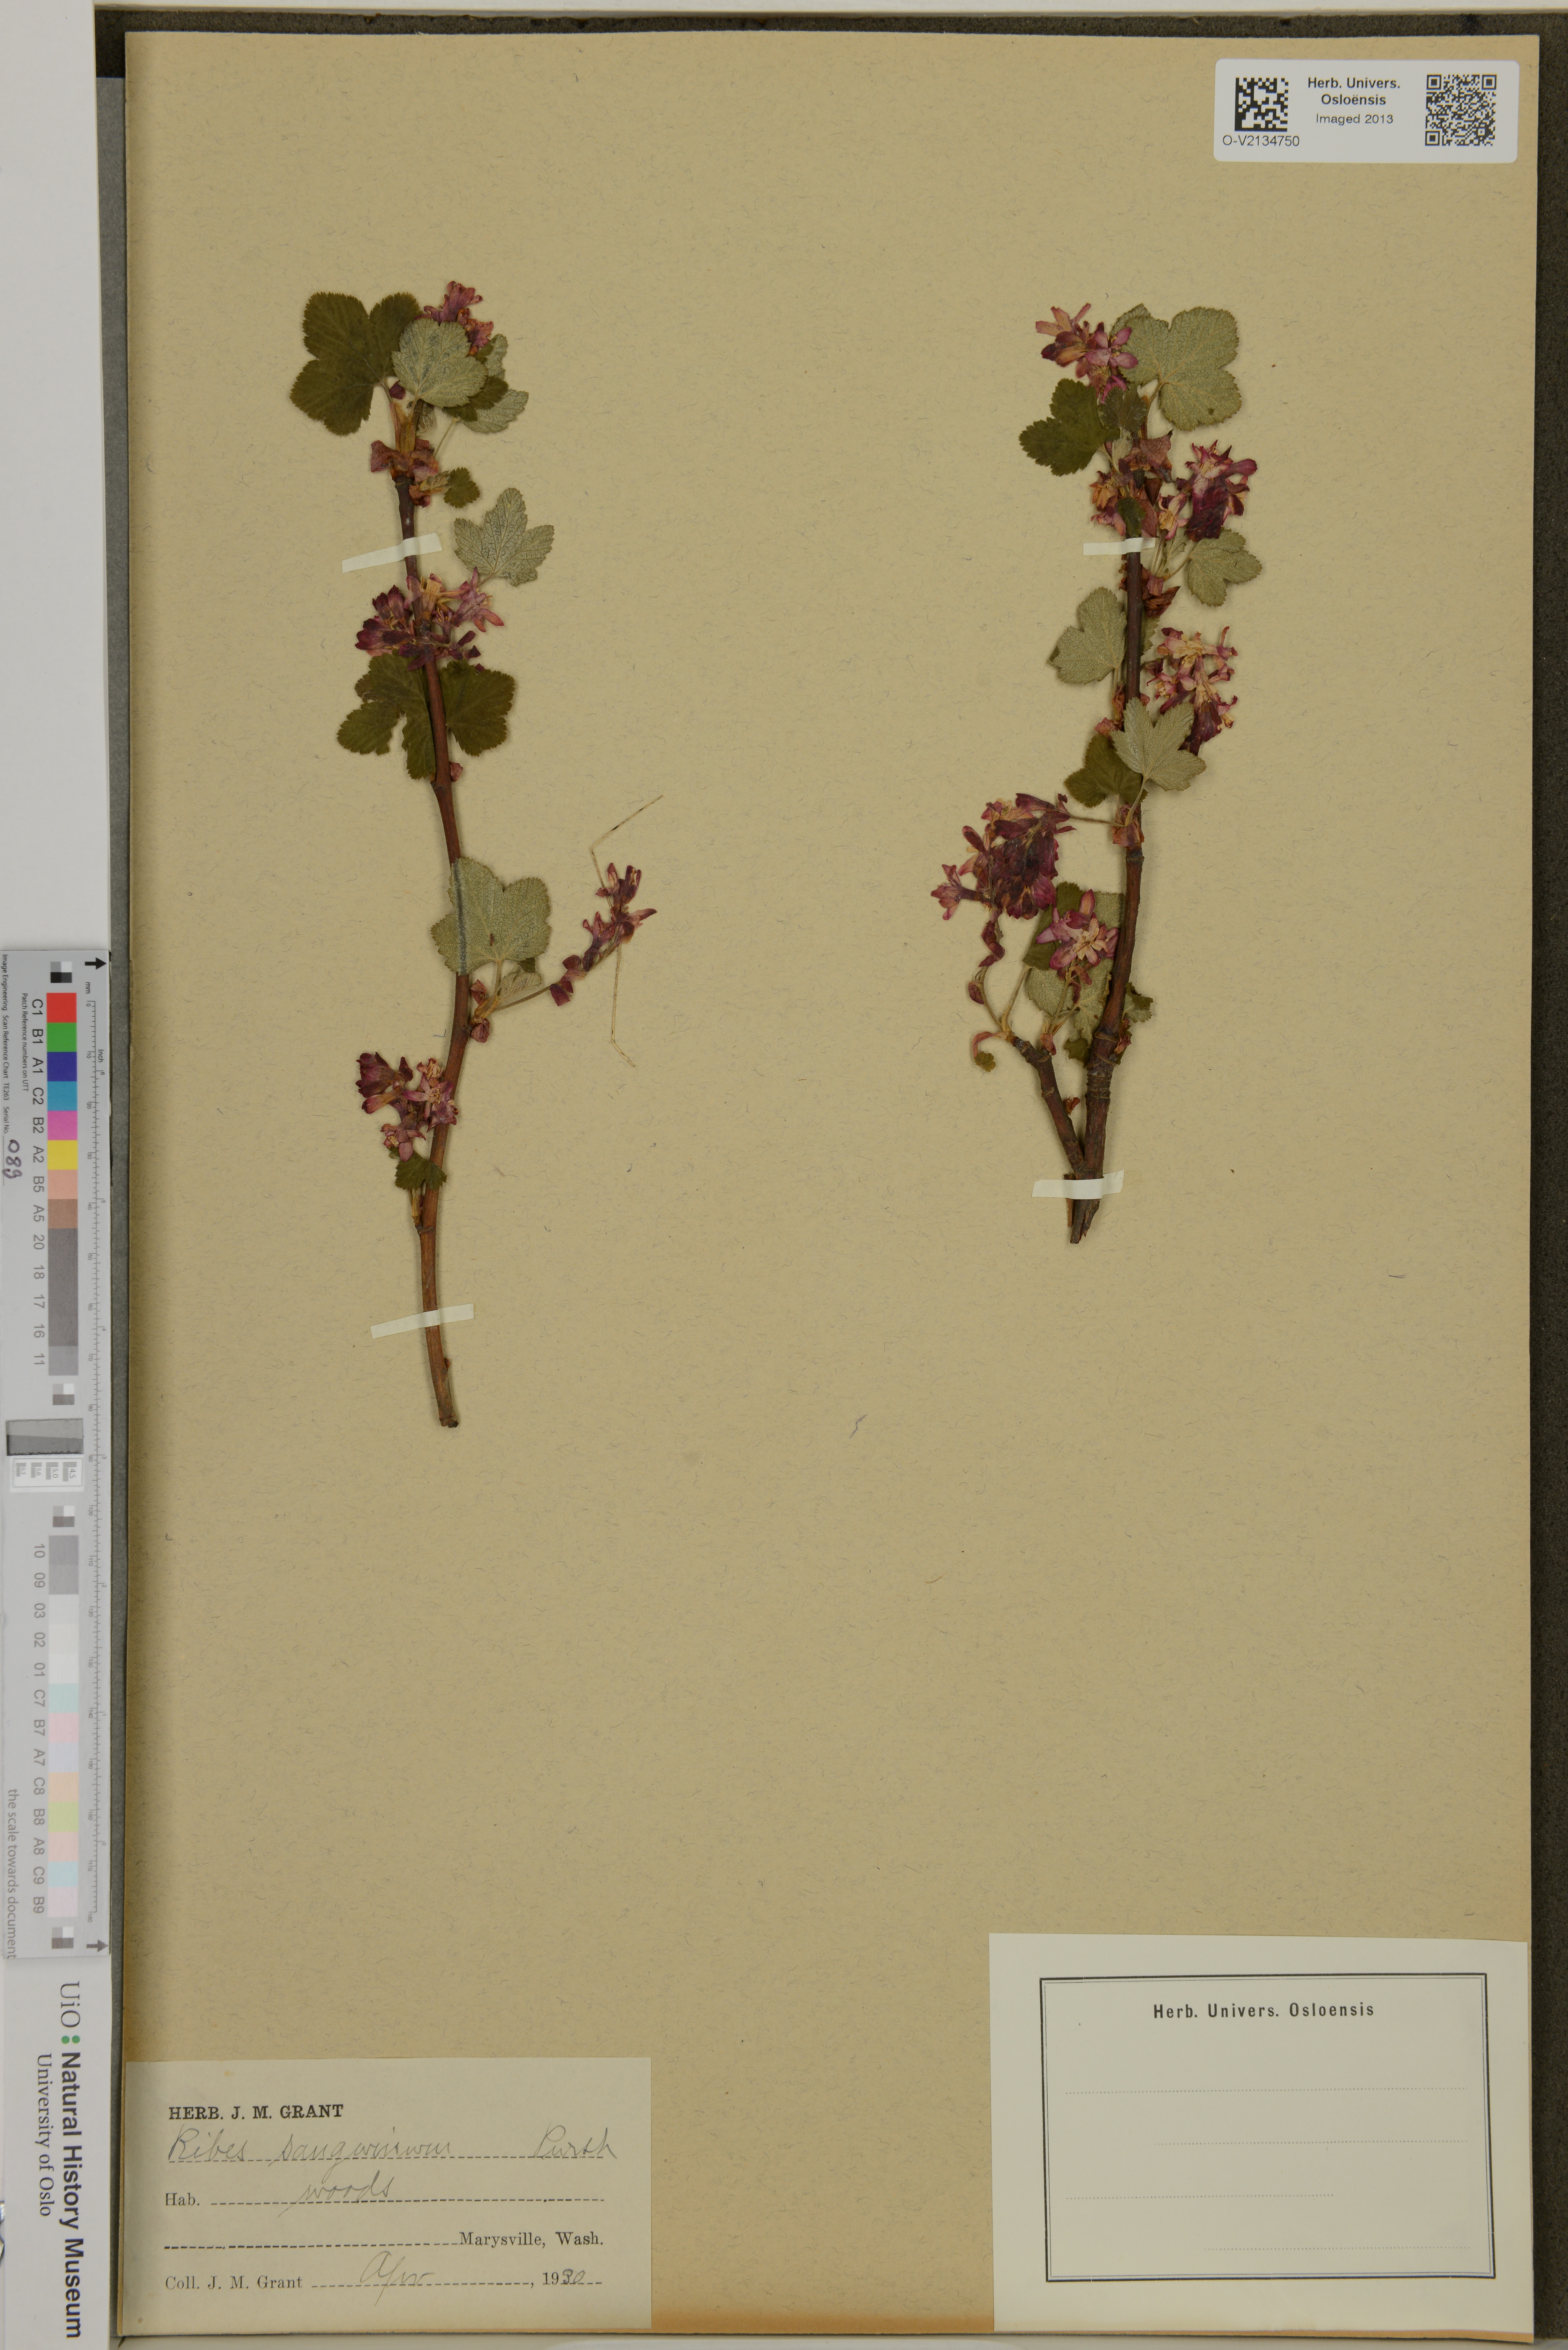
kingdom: Plantae
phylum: Tracheophyta
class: Magnoliopsida
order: Saxifragales
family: Grossulariaceae
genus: Ribes
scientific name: Ribes sanguineum
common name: Flowering currant
